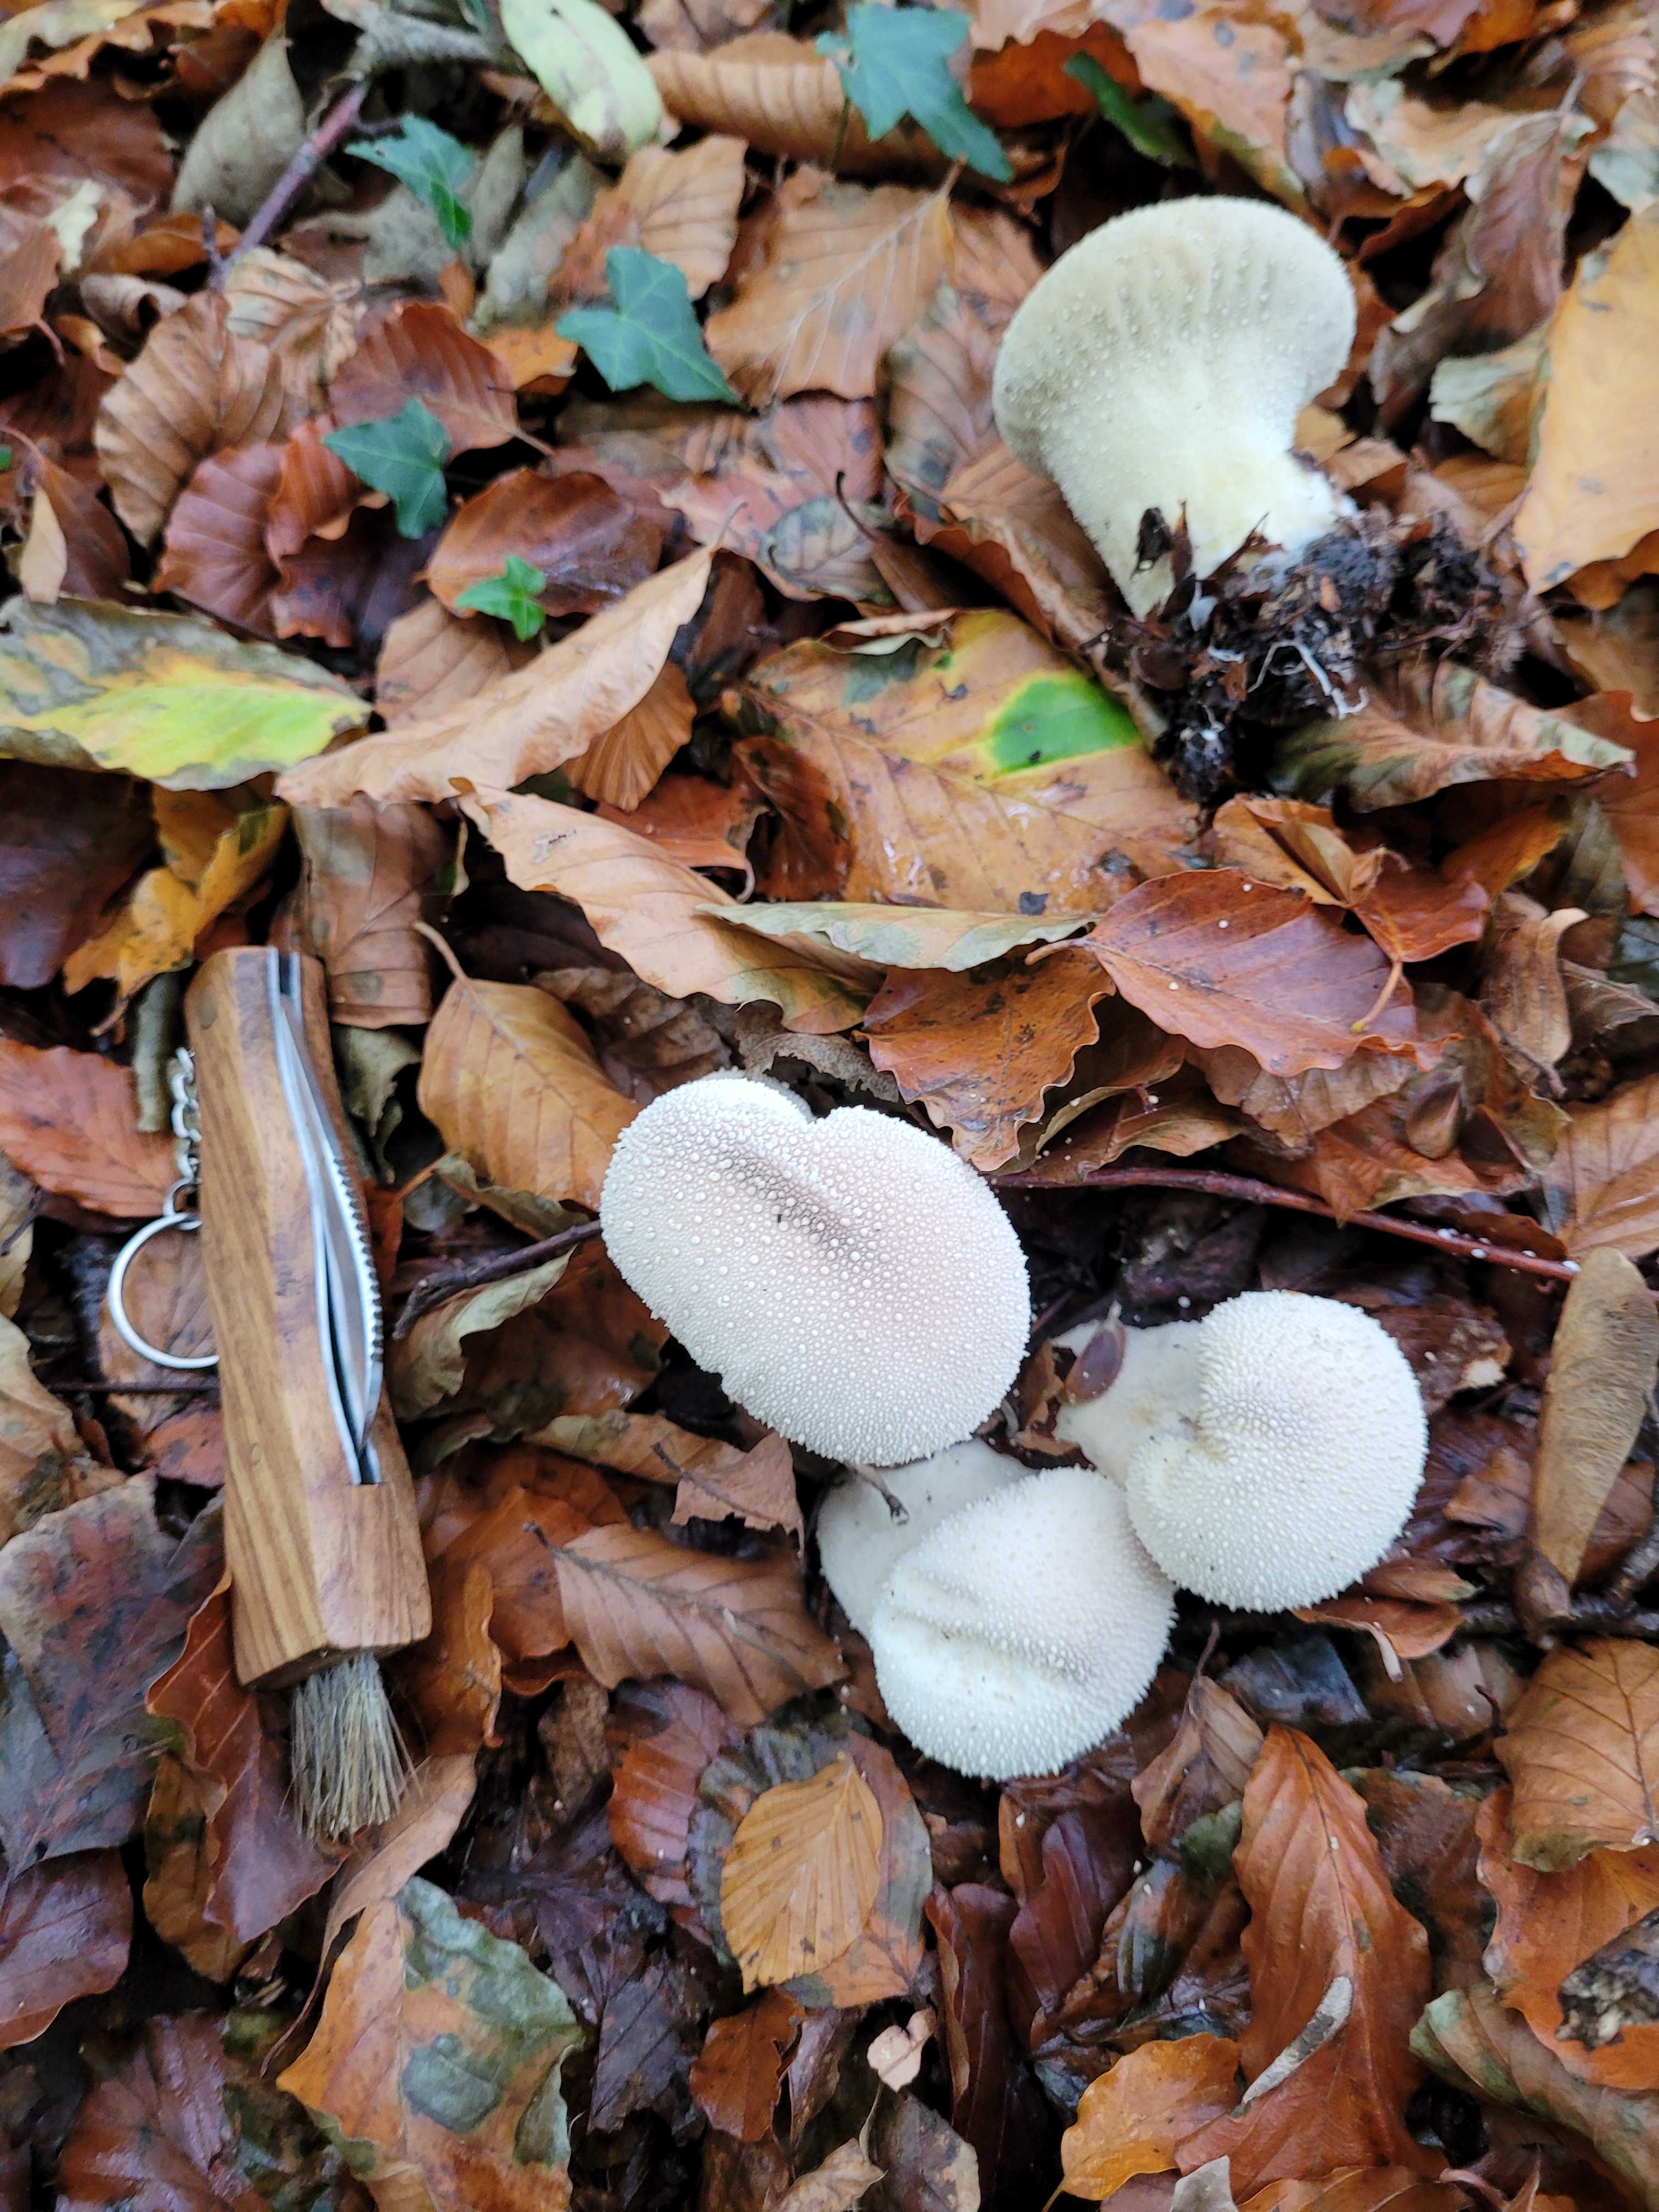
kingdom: Fungi
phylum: Basidiomycota
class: Agaricomycetes
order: Agaricales
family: Lycoperdaceae
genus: Lycoperdon
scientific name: Lycoperdon perlatum
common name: krystal-støvbold
